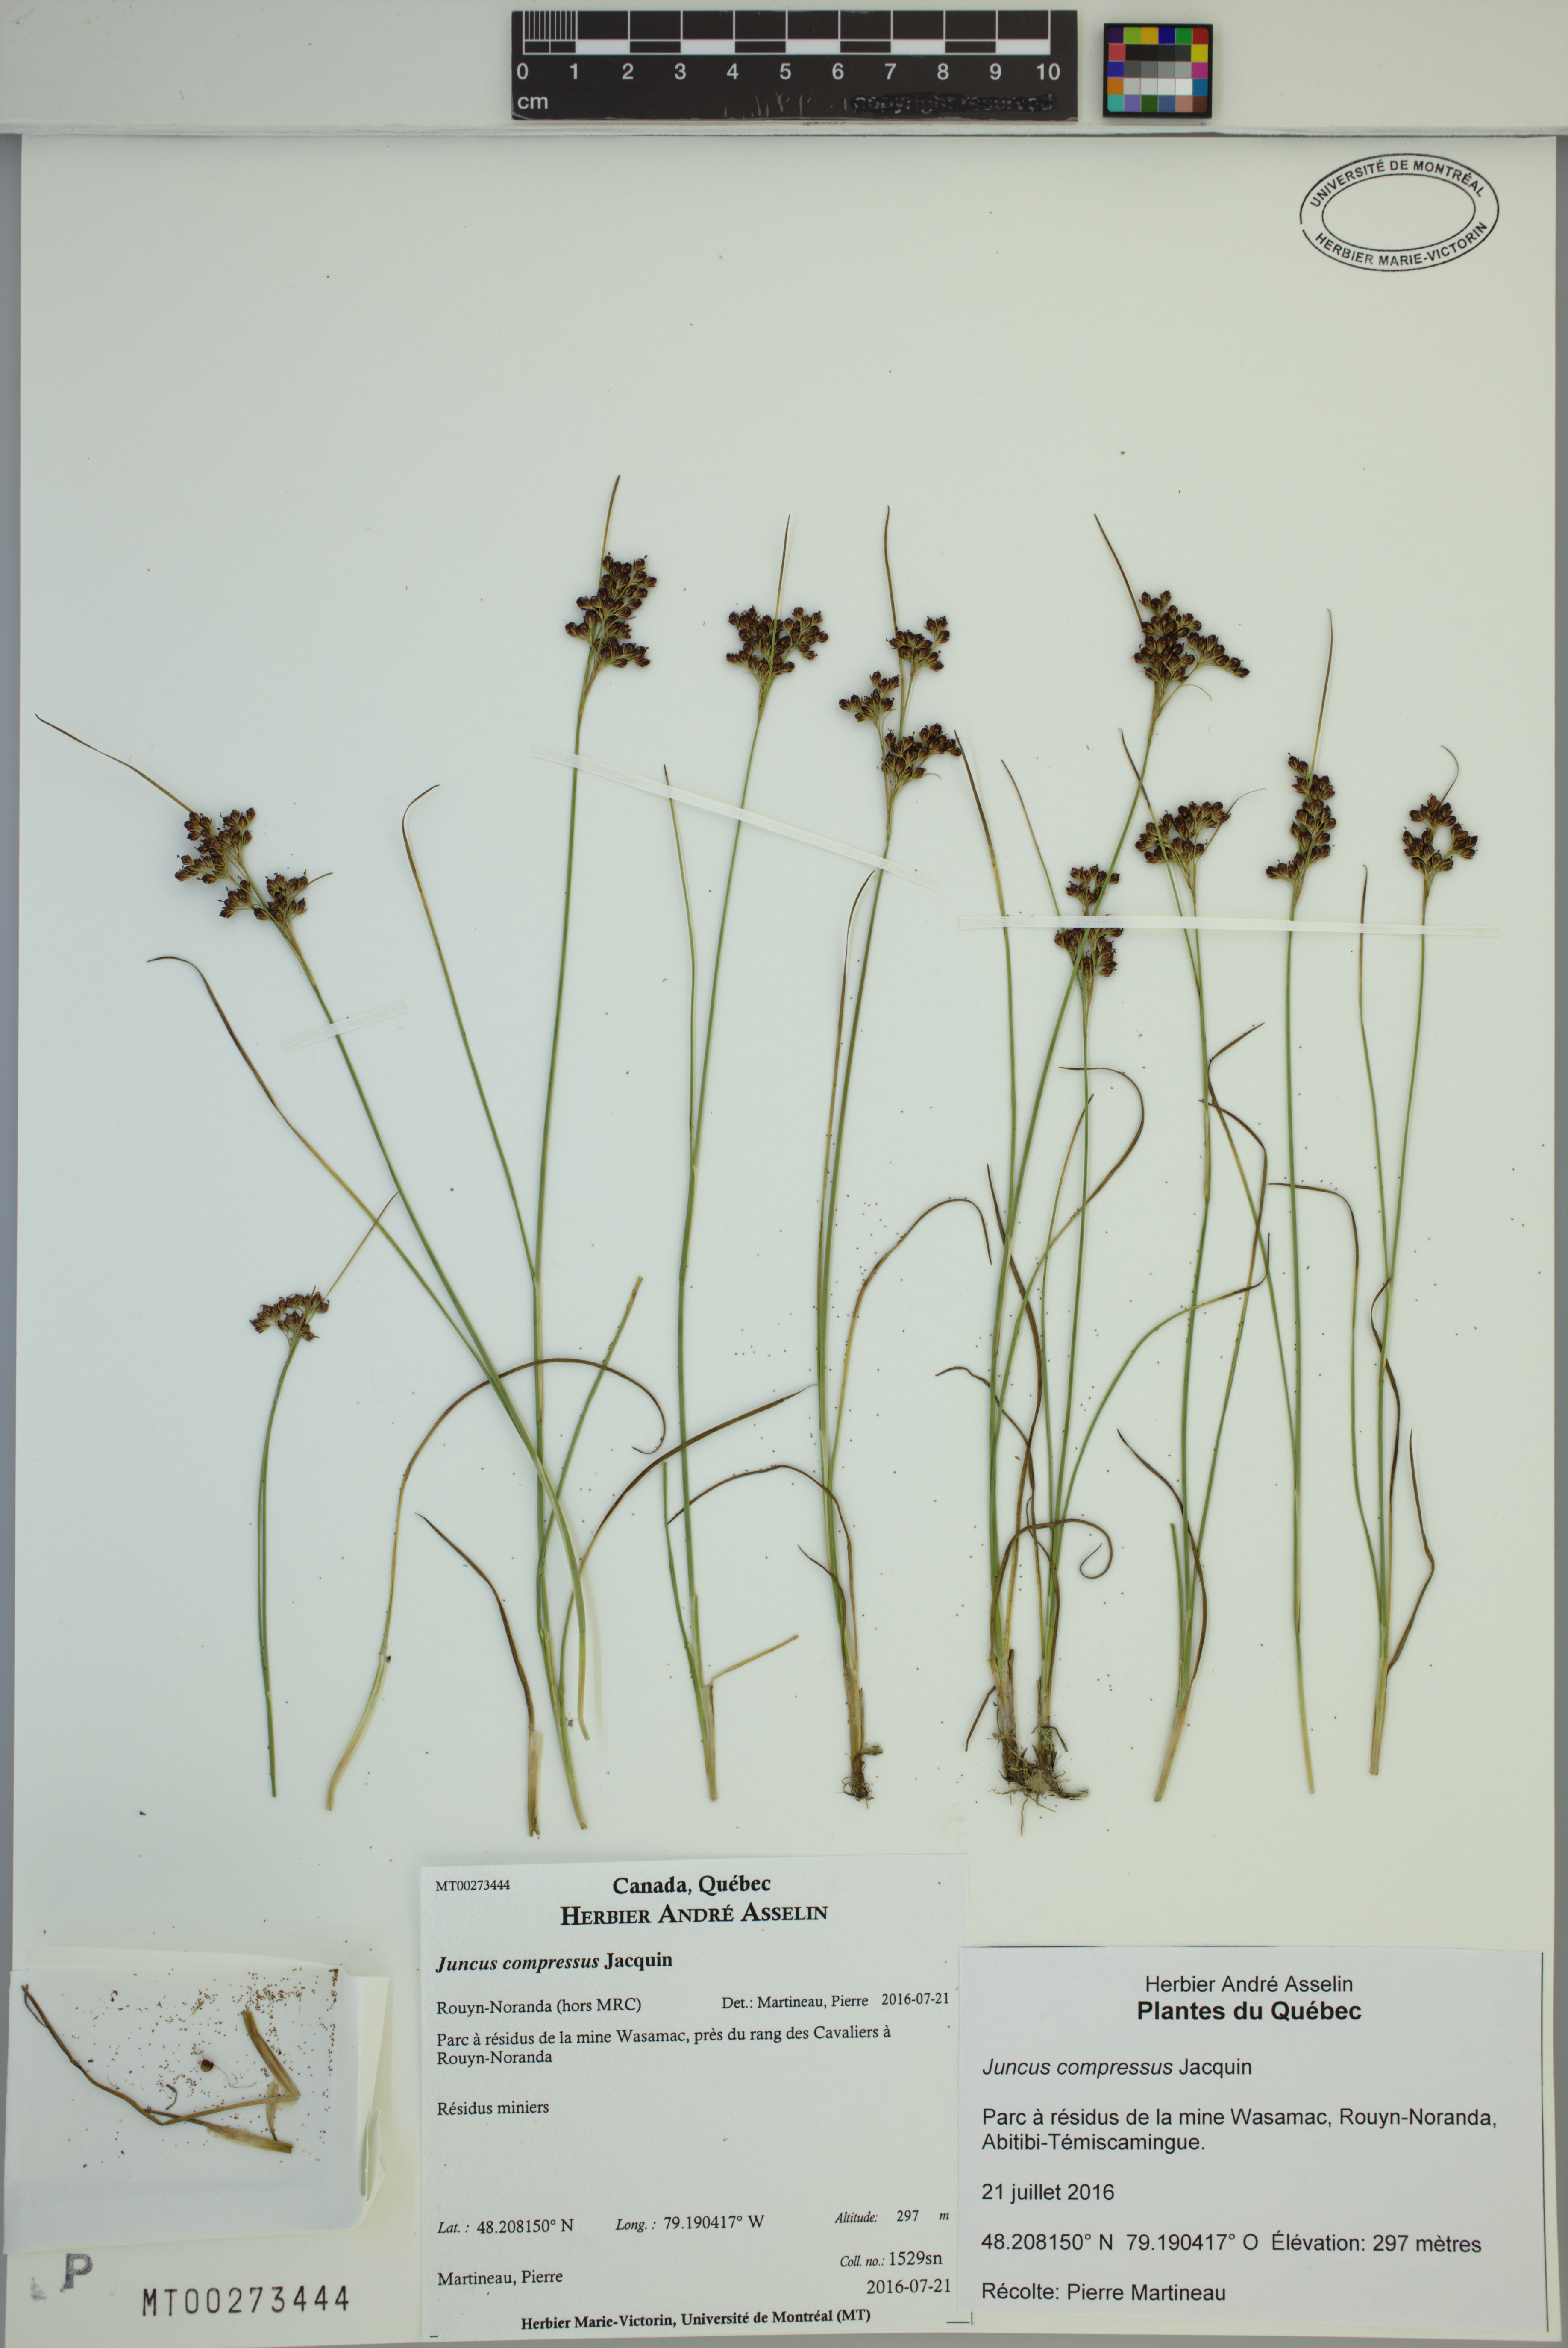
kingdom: Plantae
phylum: Tracheophyta
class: Liliopsida
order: Poales
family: Juncaceae
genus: Juncus
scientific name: Juncus compressus
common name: Round-fruited rush
